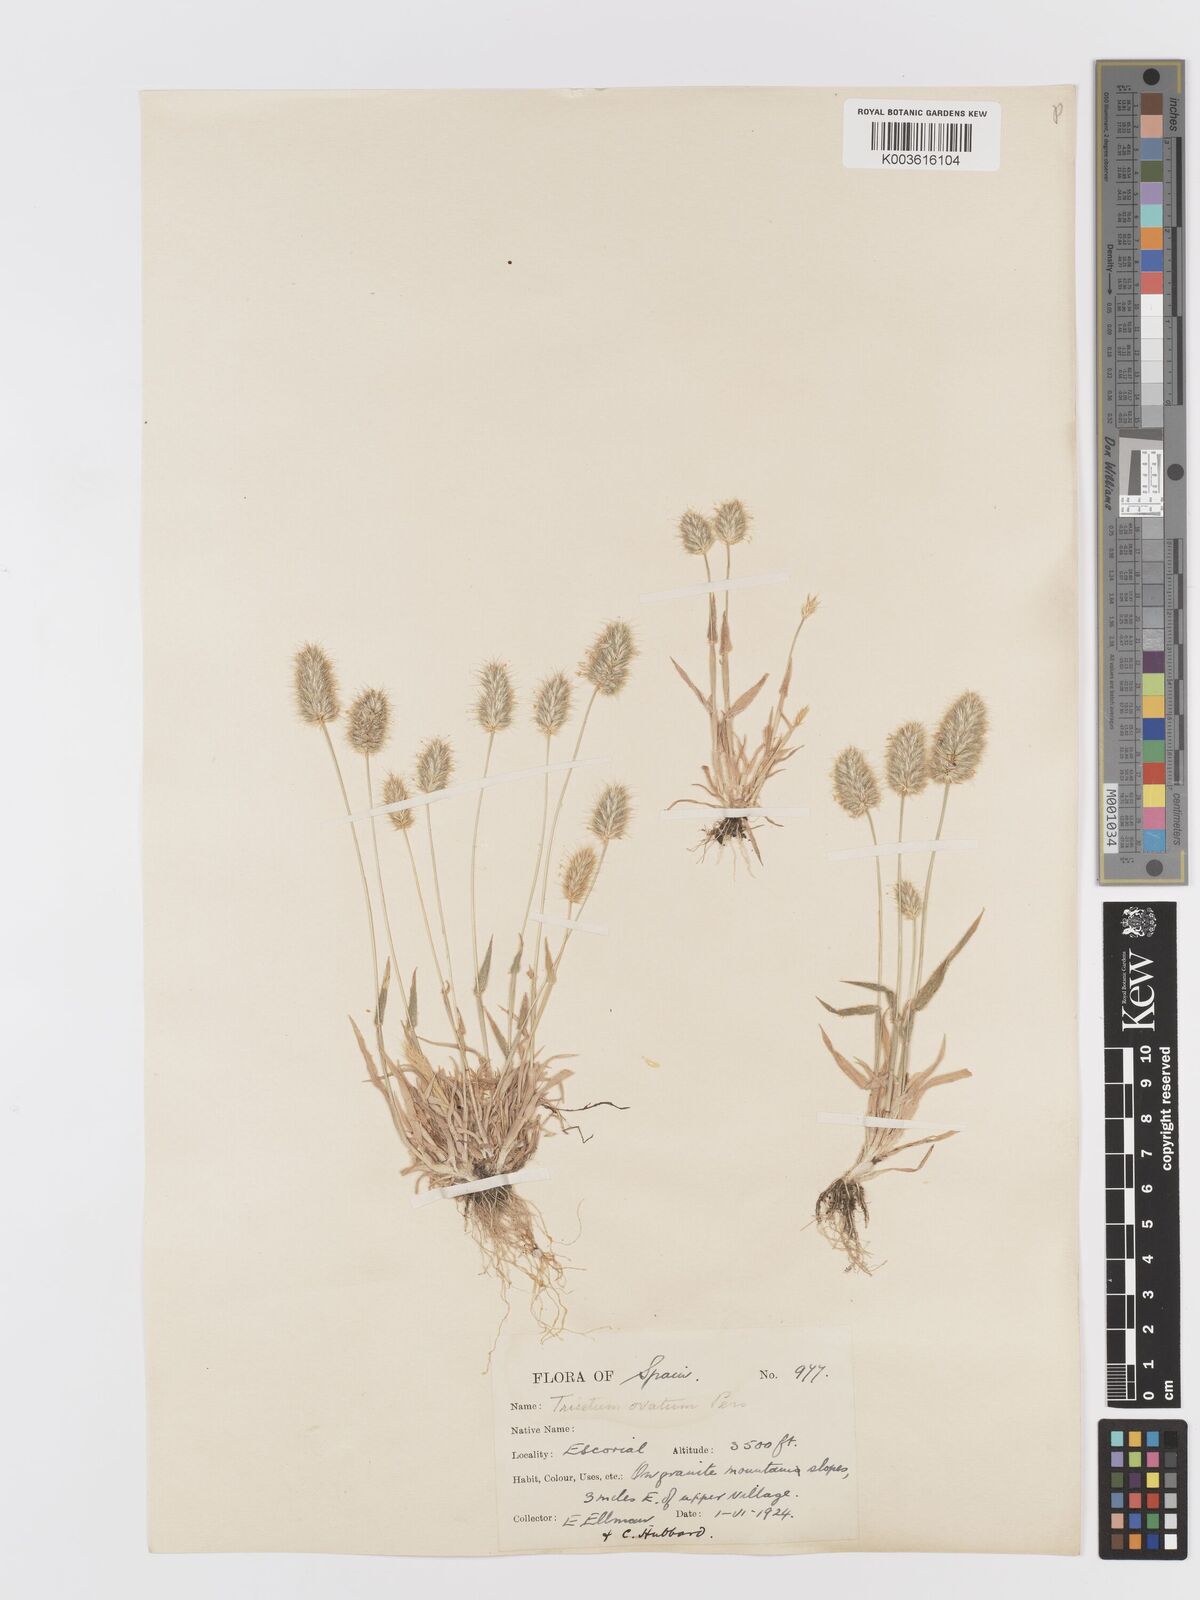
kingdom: Plantae
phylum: Tracheophyta
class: Liliopsida
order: Poales
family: Poaceae
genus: Trisetaria
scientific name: Trisetaria ovata
